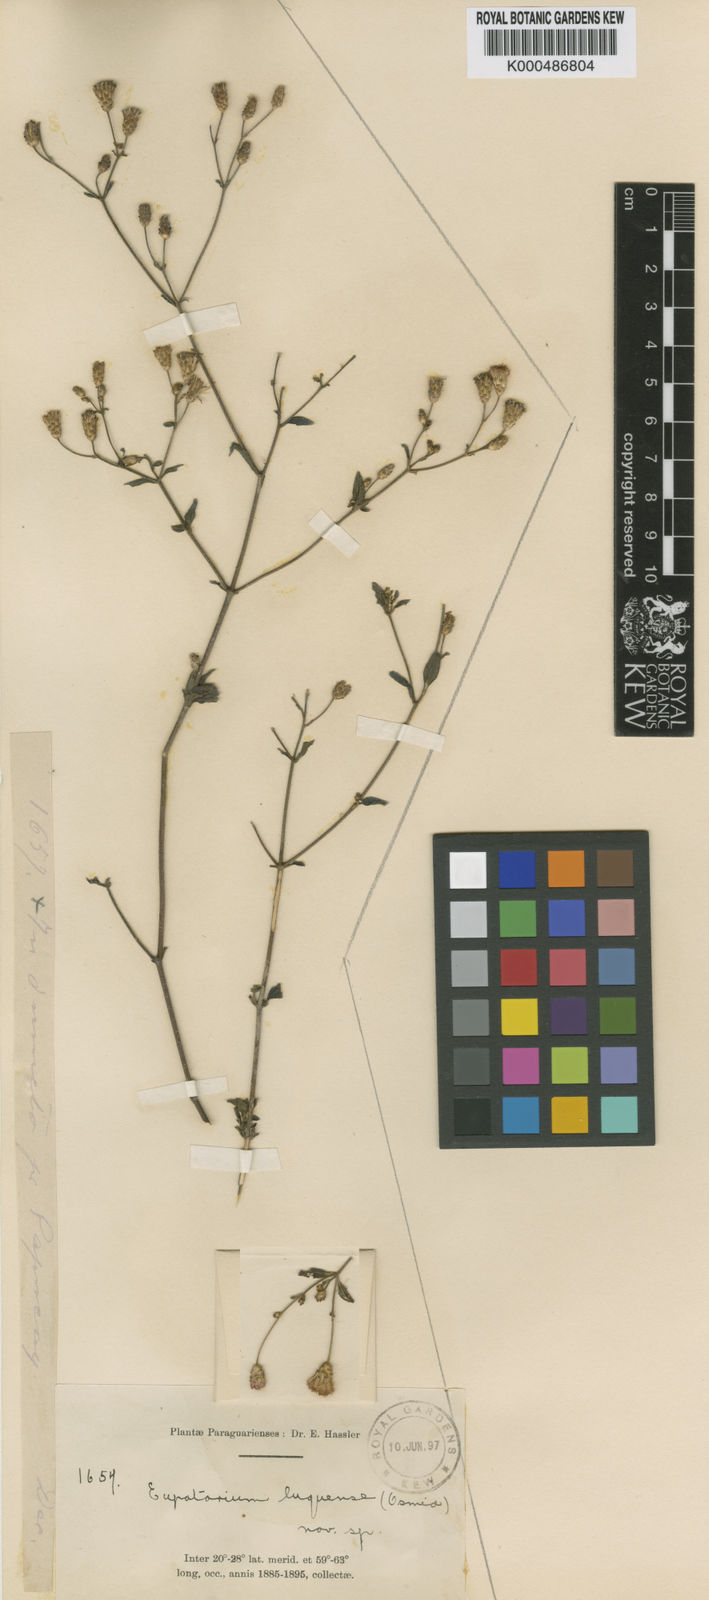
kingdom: Plantae
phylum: Tracheophyta
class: Magnoliopsida
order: Asterales
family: Asteraceae
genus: Chromolaena
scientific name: Chromolaena ivifolia
